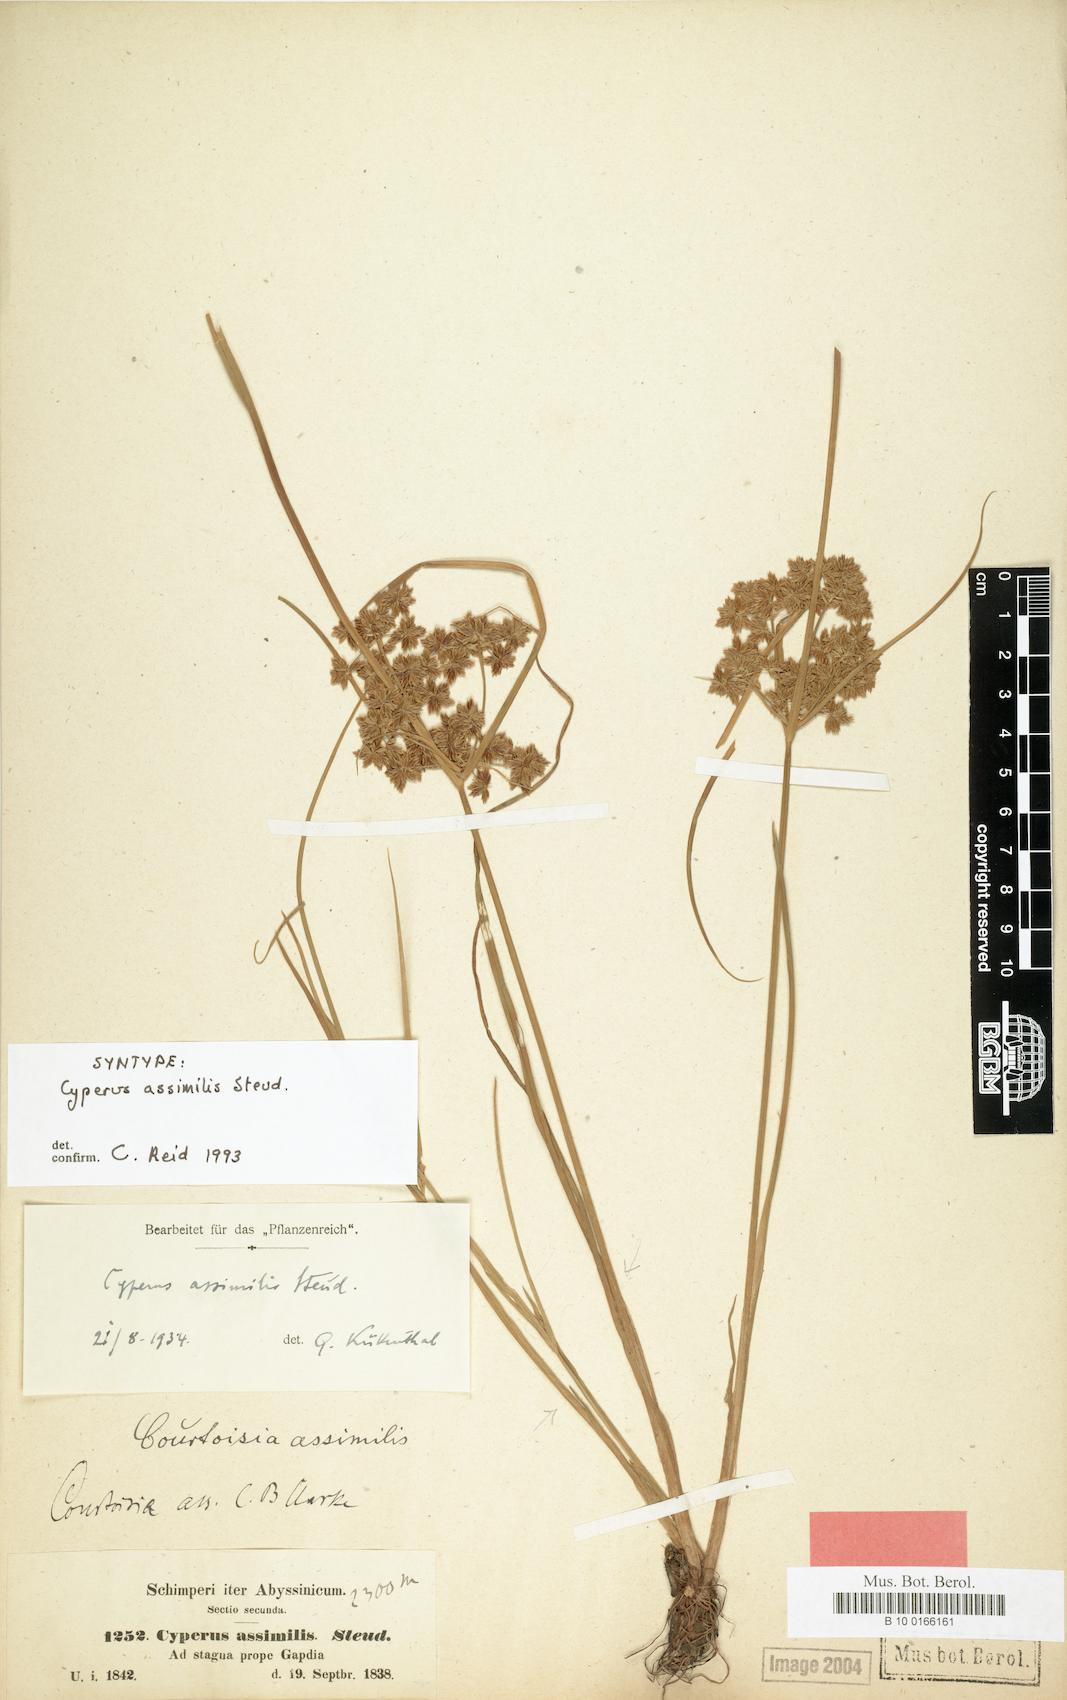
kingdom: Plantae
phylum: Tracheophyta
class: Liliopsida
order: Poales
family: Cyperaceae
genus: Cyperus
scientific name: Cyperus assimilis
